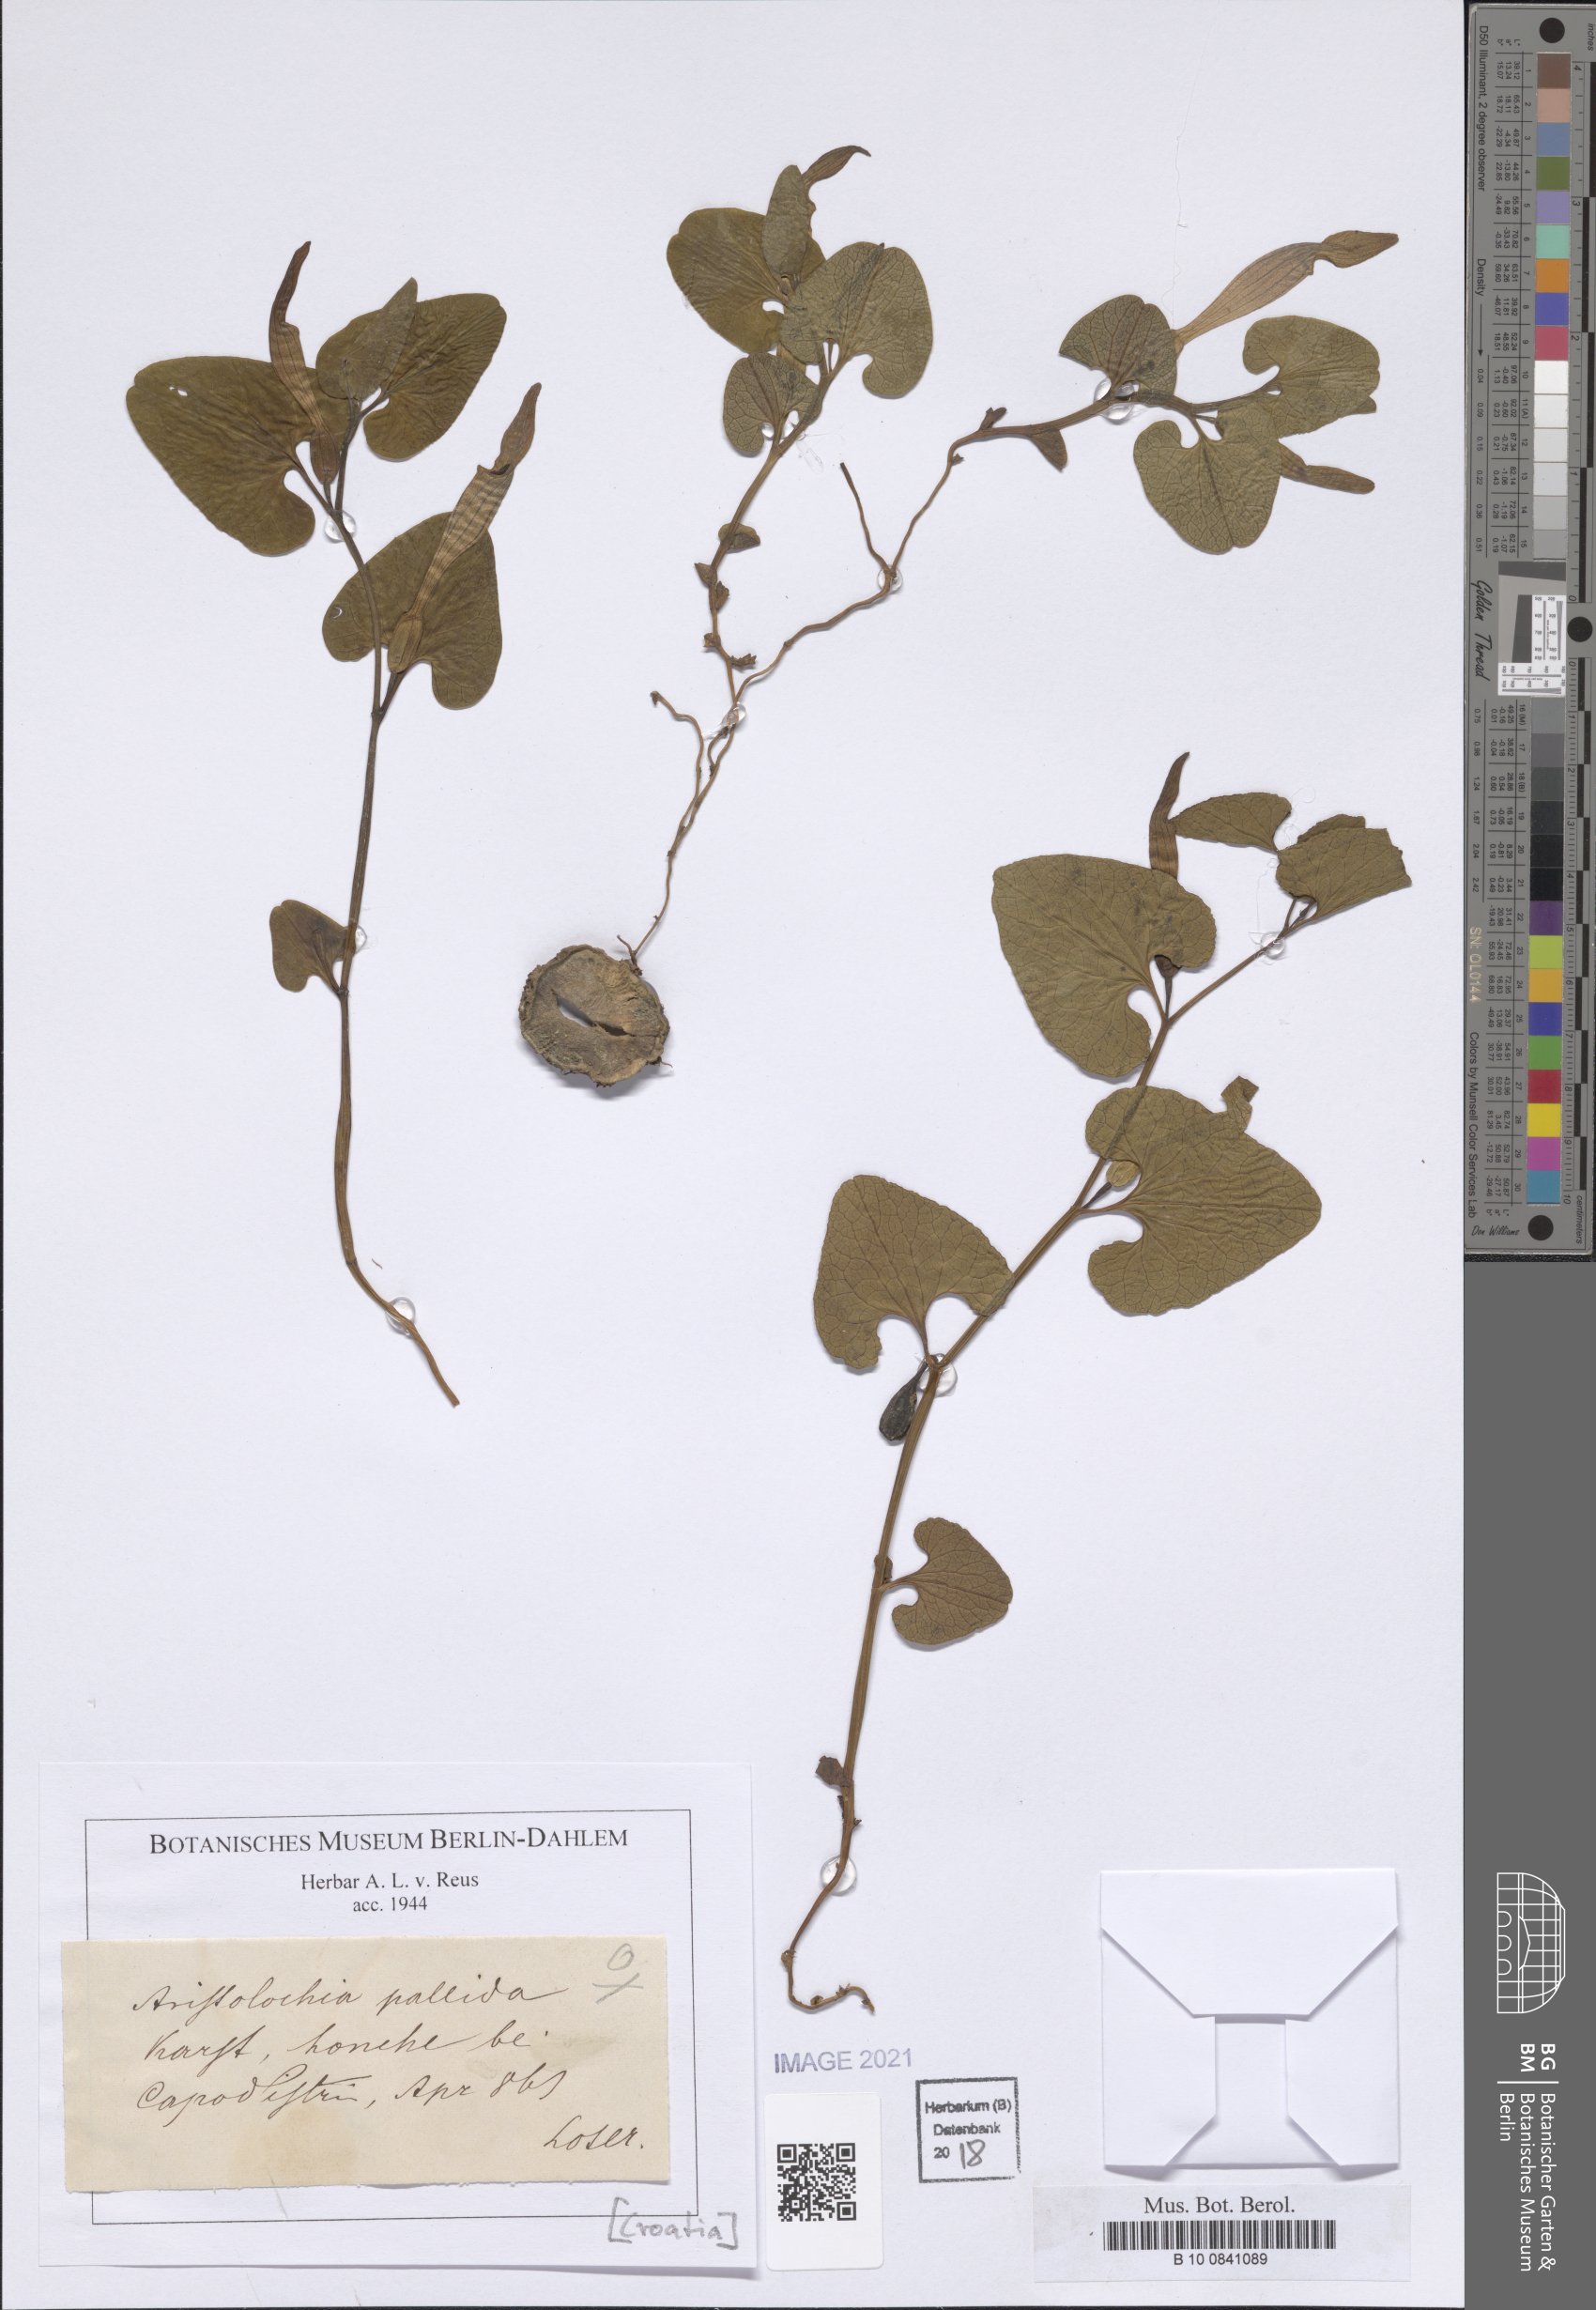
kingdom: Plantae
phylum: Tracheophyta
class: Magnoliopsida
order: Piperales
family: Aristolochiaceae
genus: Aristolochia
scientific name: Aristolochia pallida
